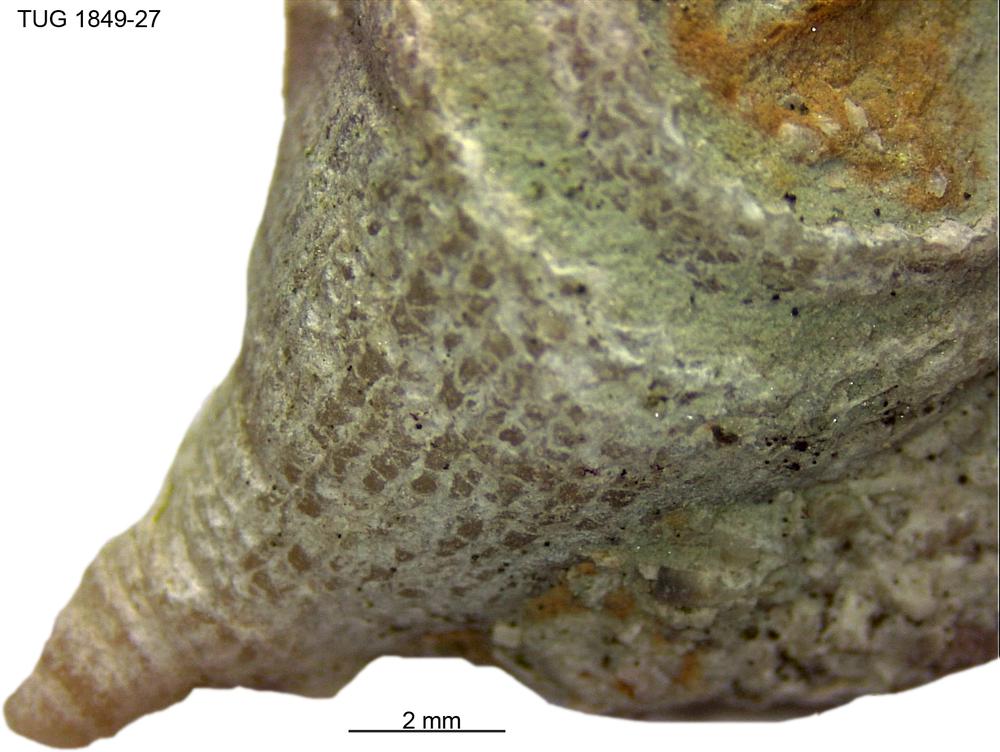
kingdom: Animalia
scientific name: Animalia
